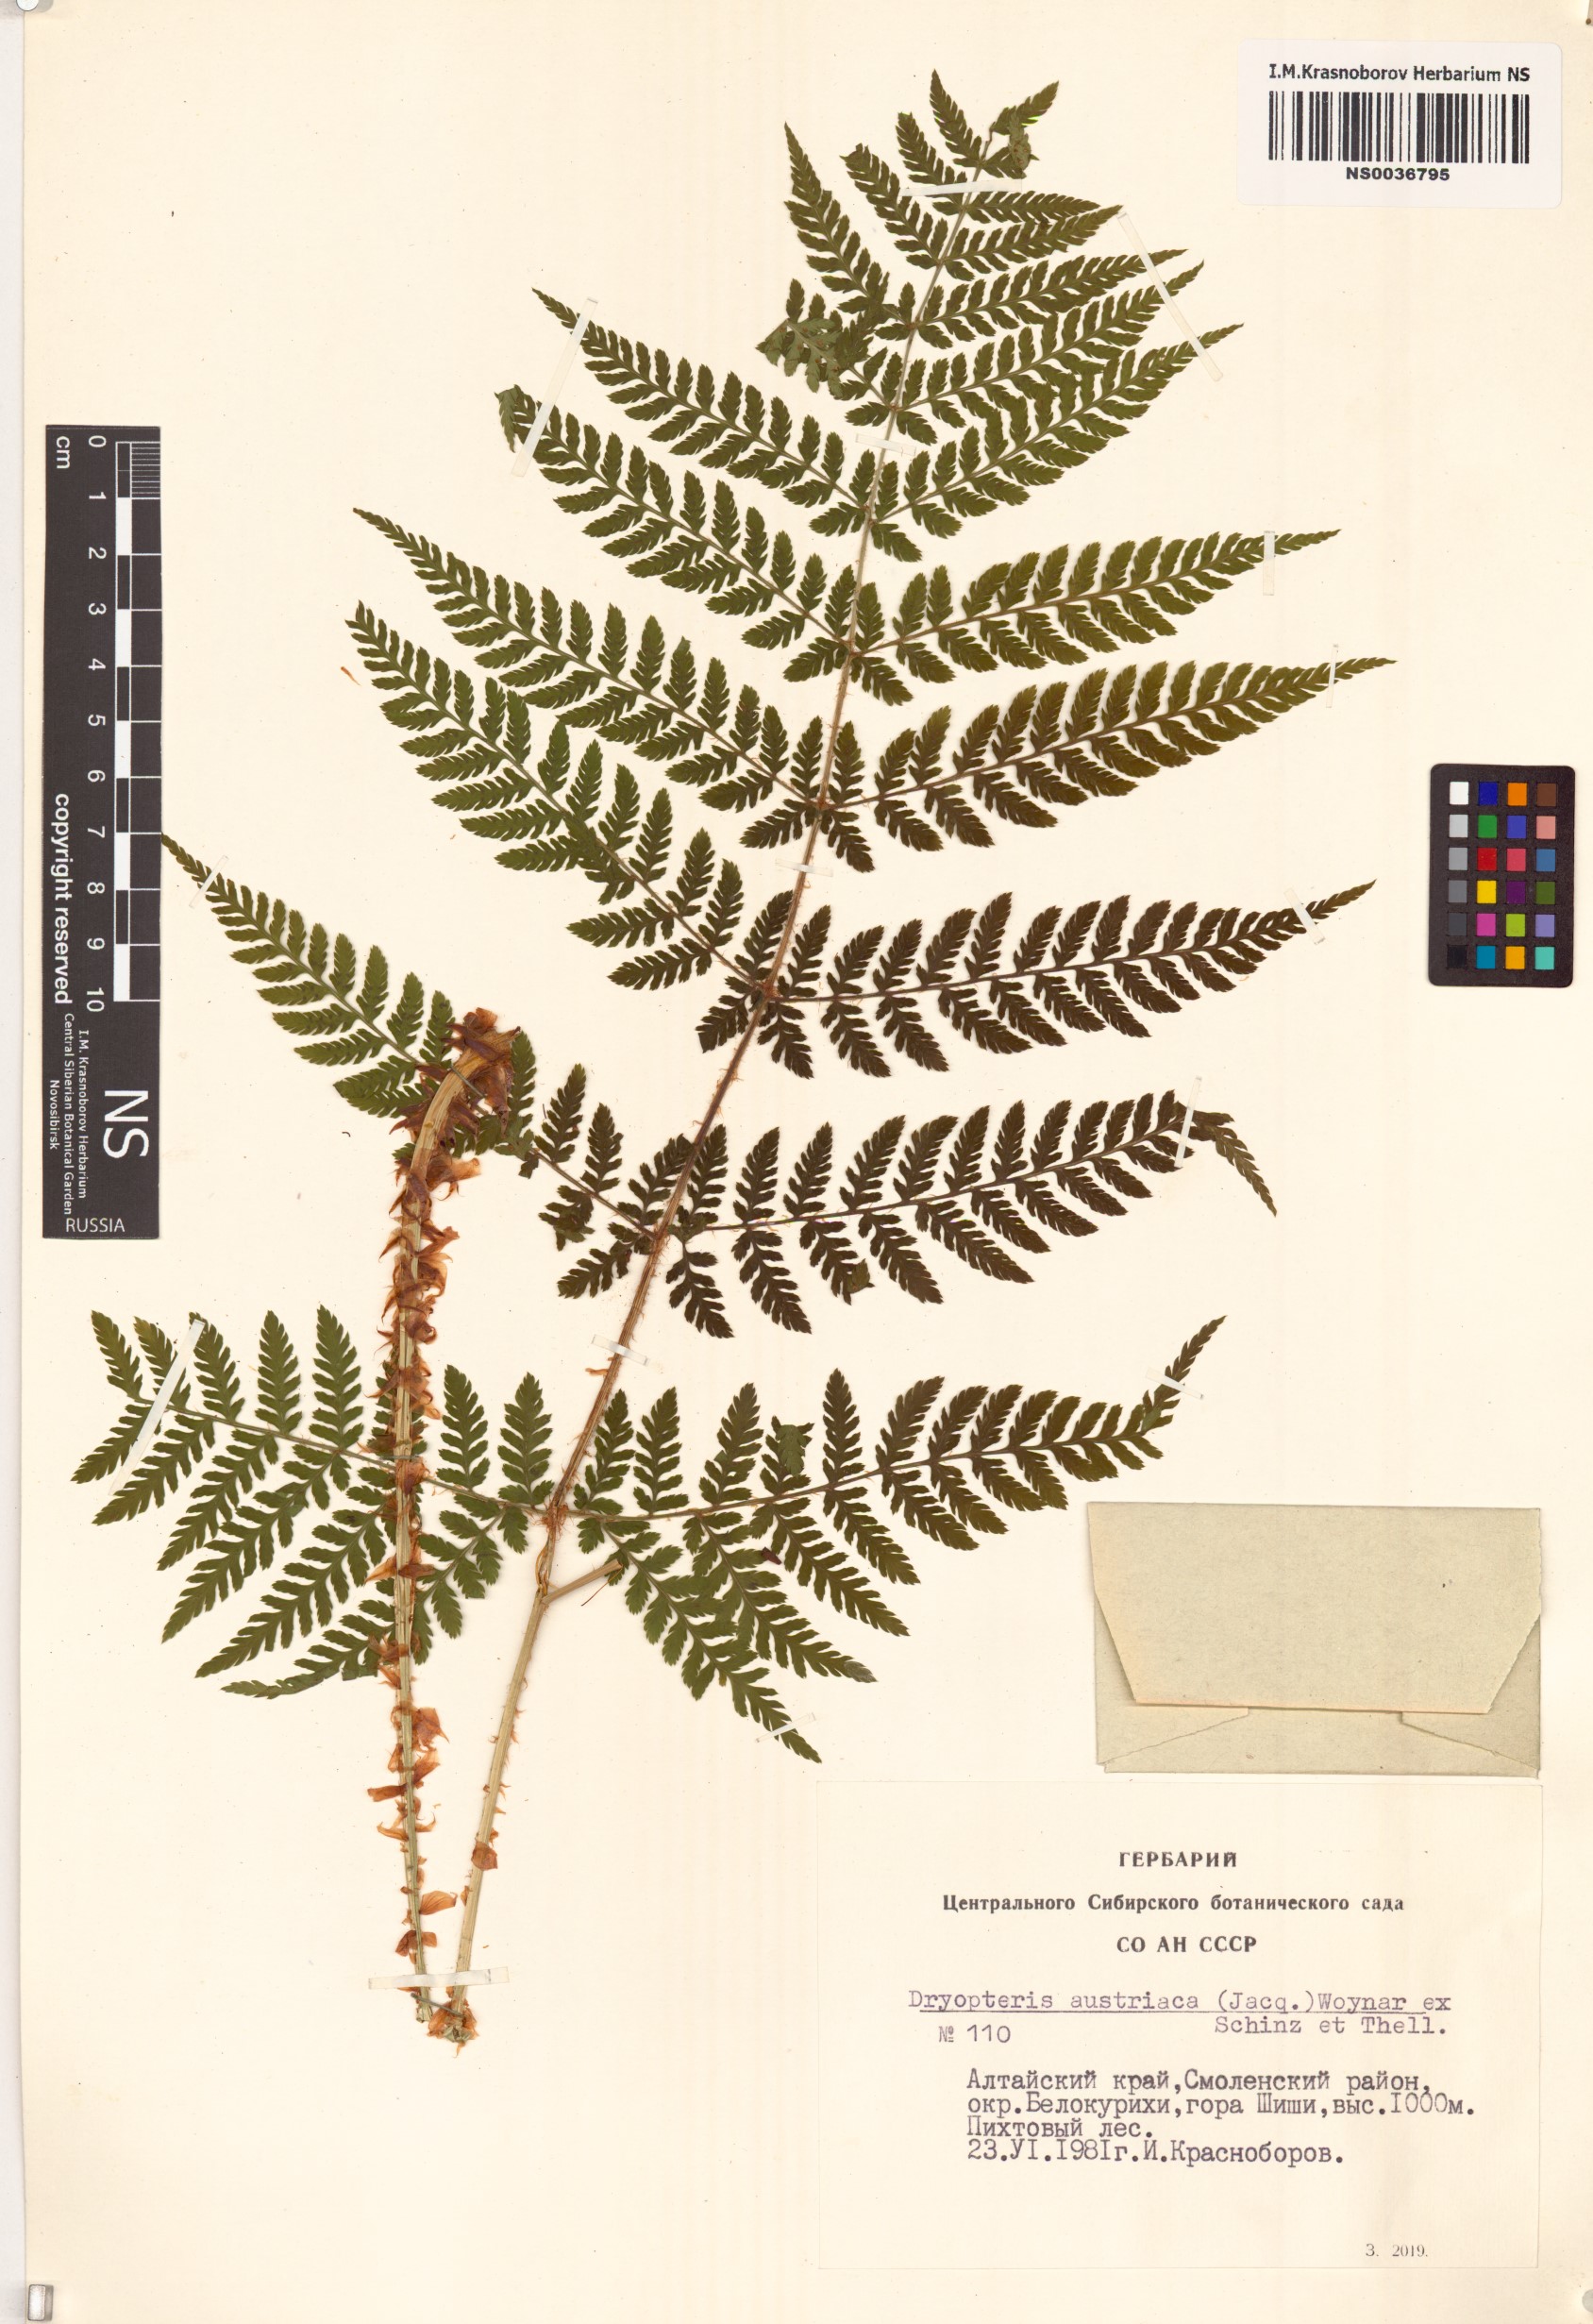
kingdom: Plantae
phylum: Tracheophyta
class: Polypodiopsida
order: Polypodiales
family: Dryopteridaceae
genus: Dryopteris
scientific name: Dryopteris dilatata
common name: Broad buckler-fern
